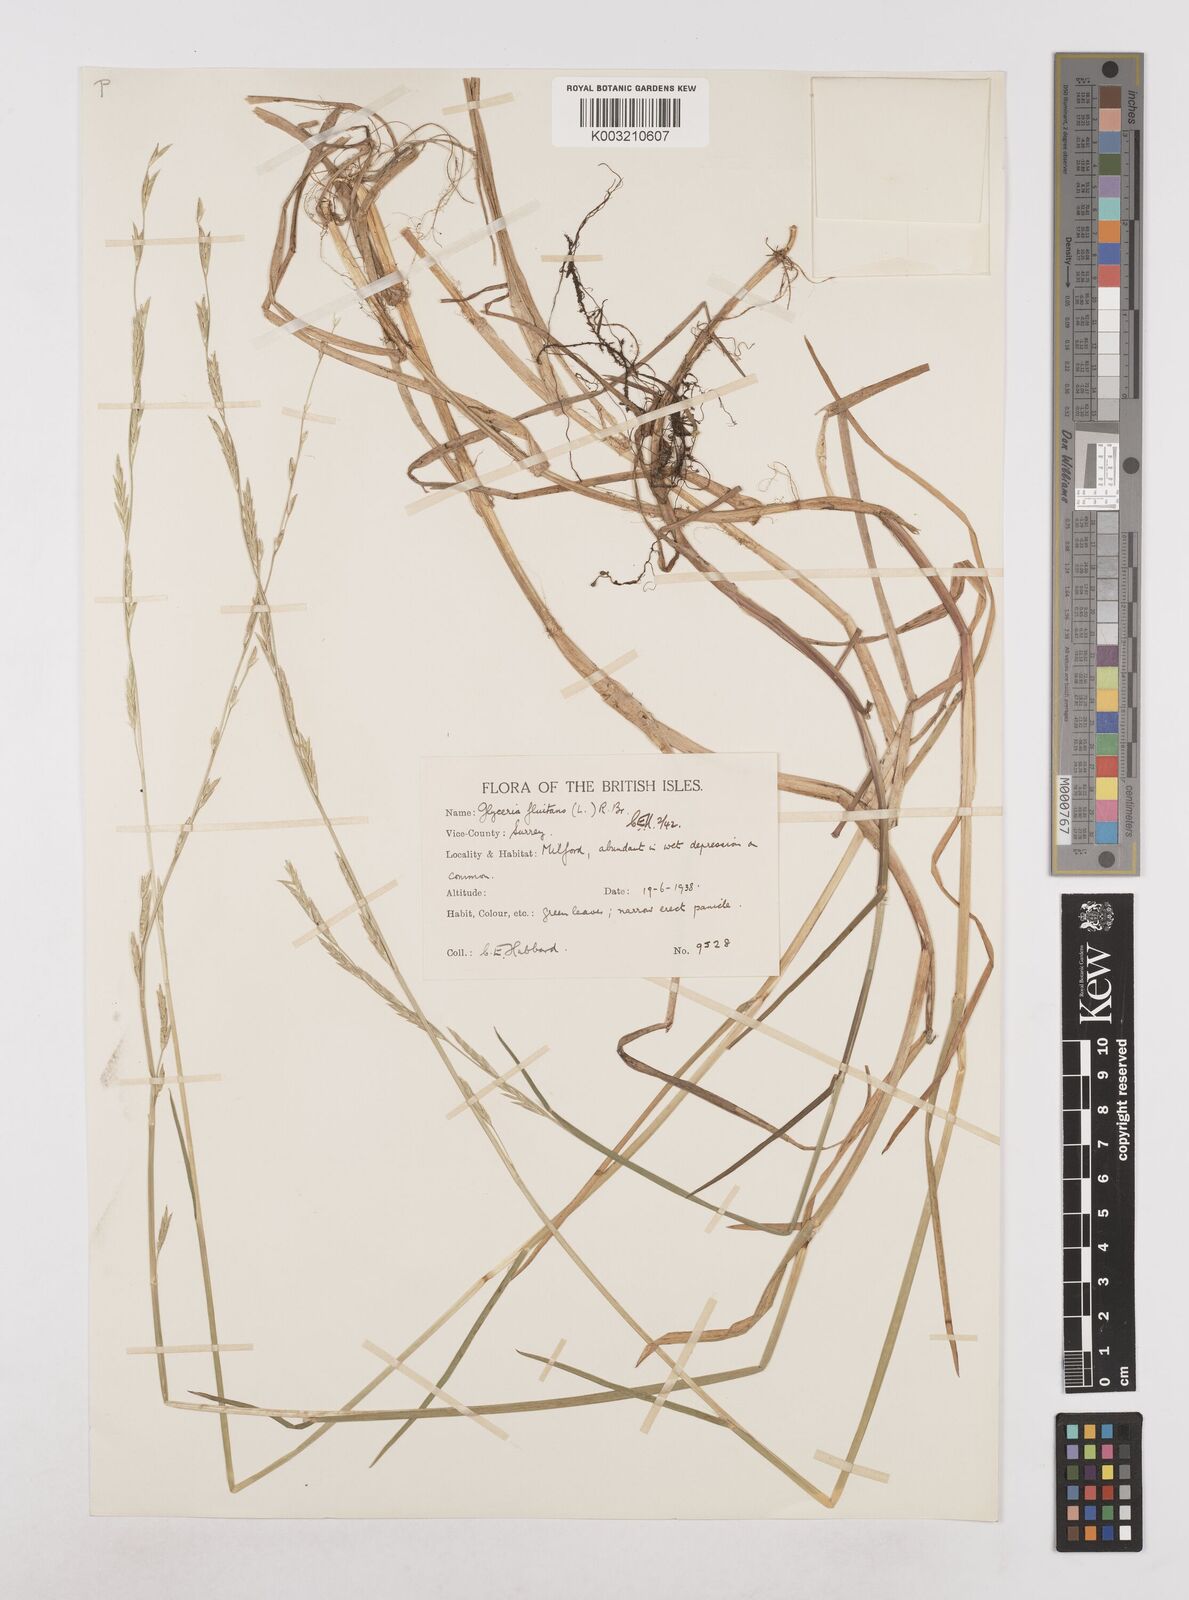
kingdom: Plantae
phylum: Tracheophyta
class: Liliopsida
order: Poales
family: Poaceae
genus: Glyceria
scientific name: Glyceria fluitans
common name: Floating sweet-grass
